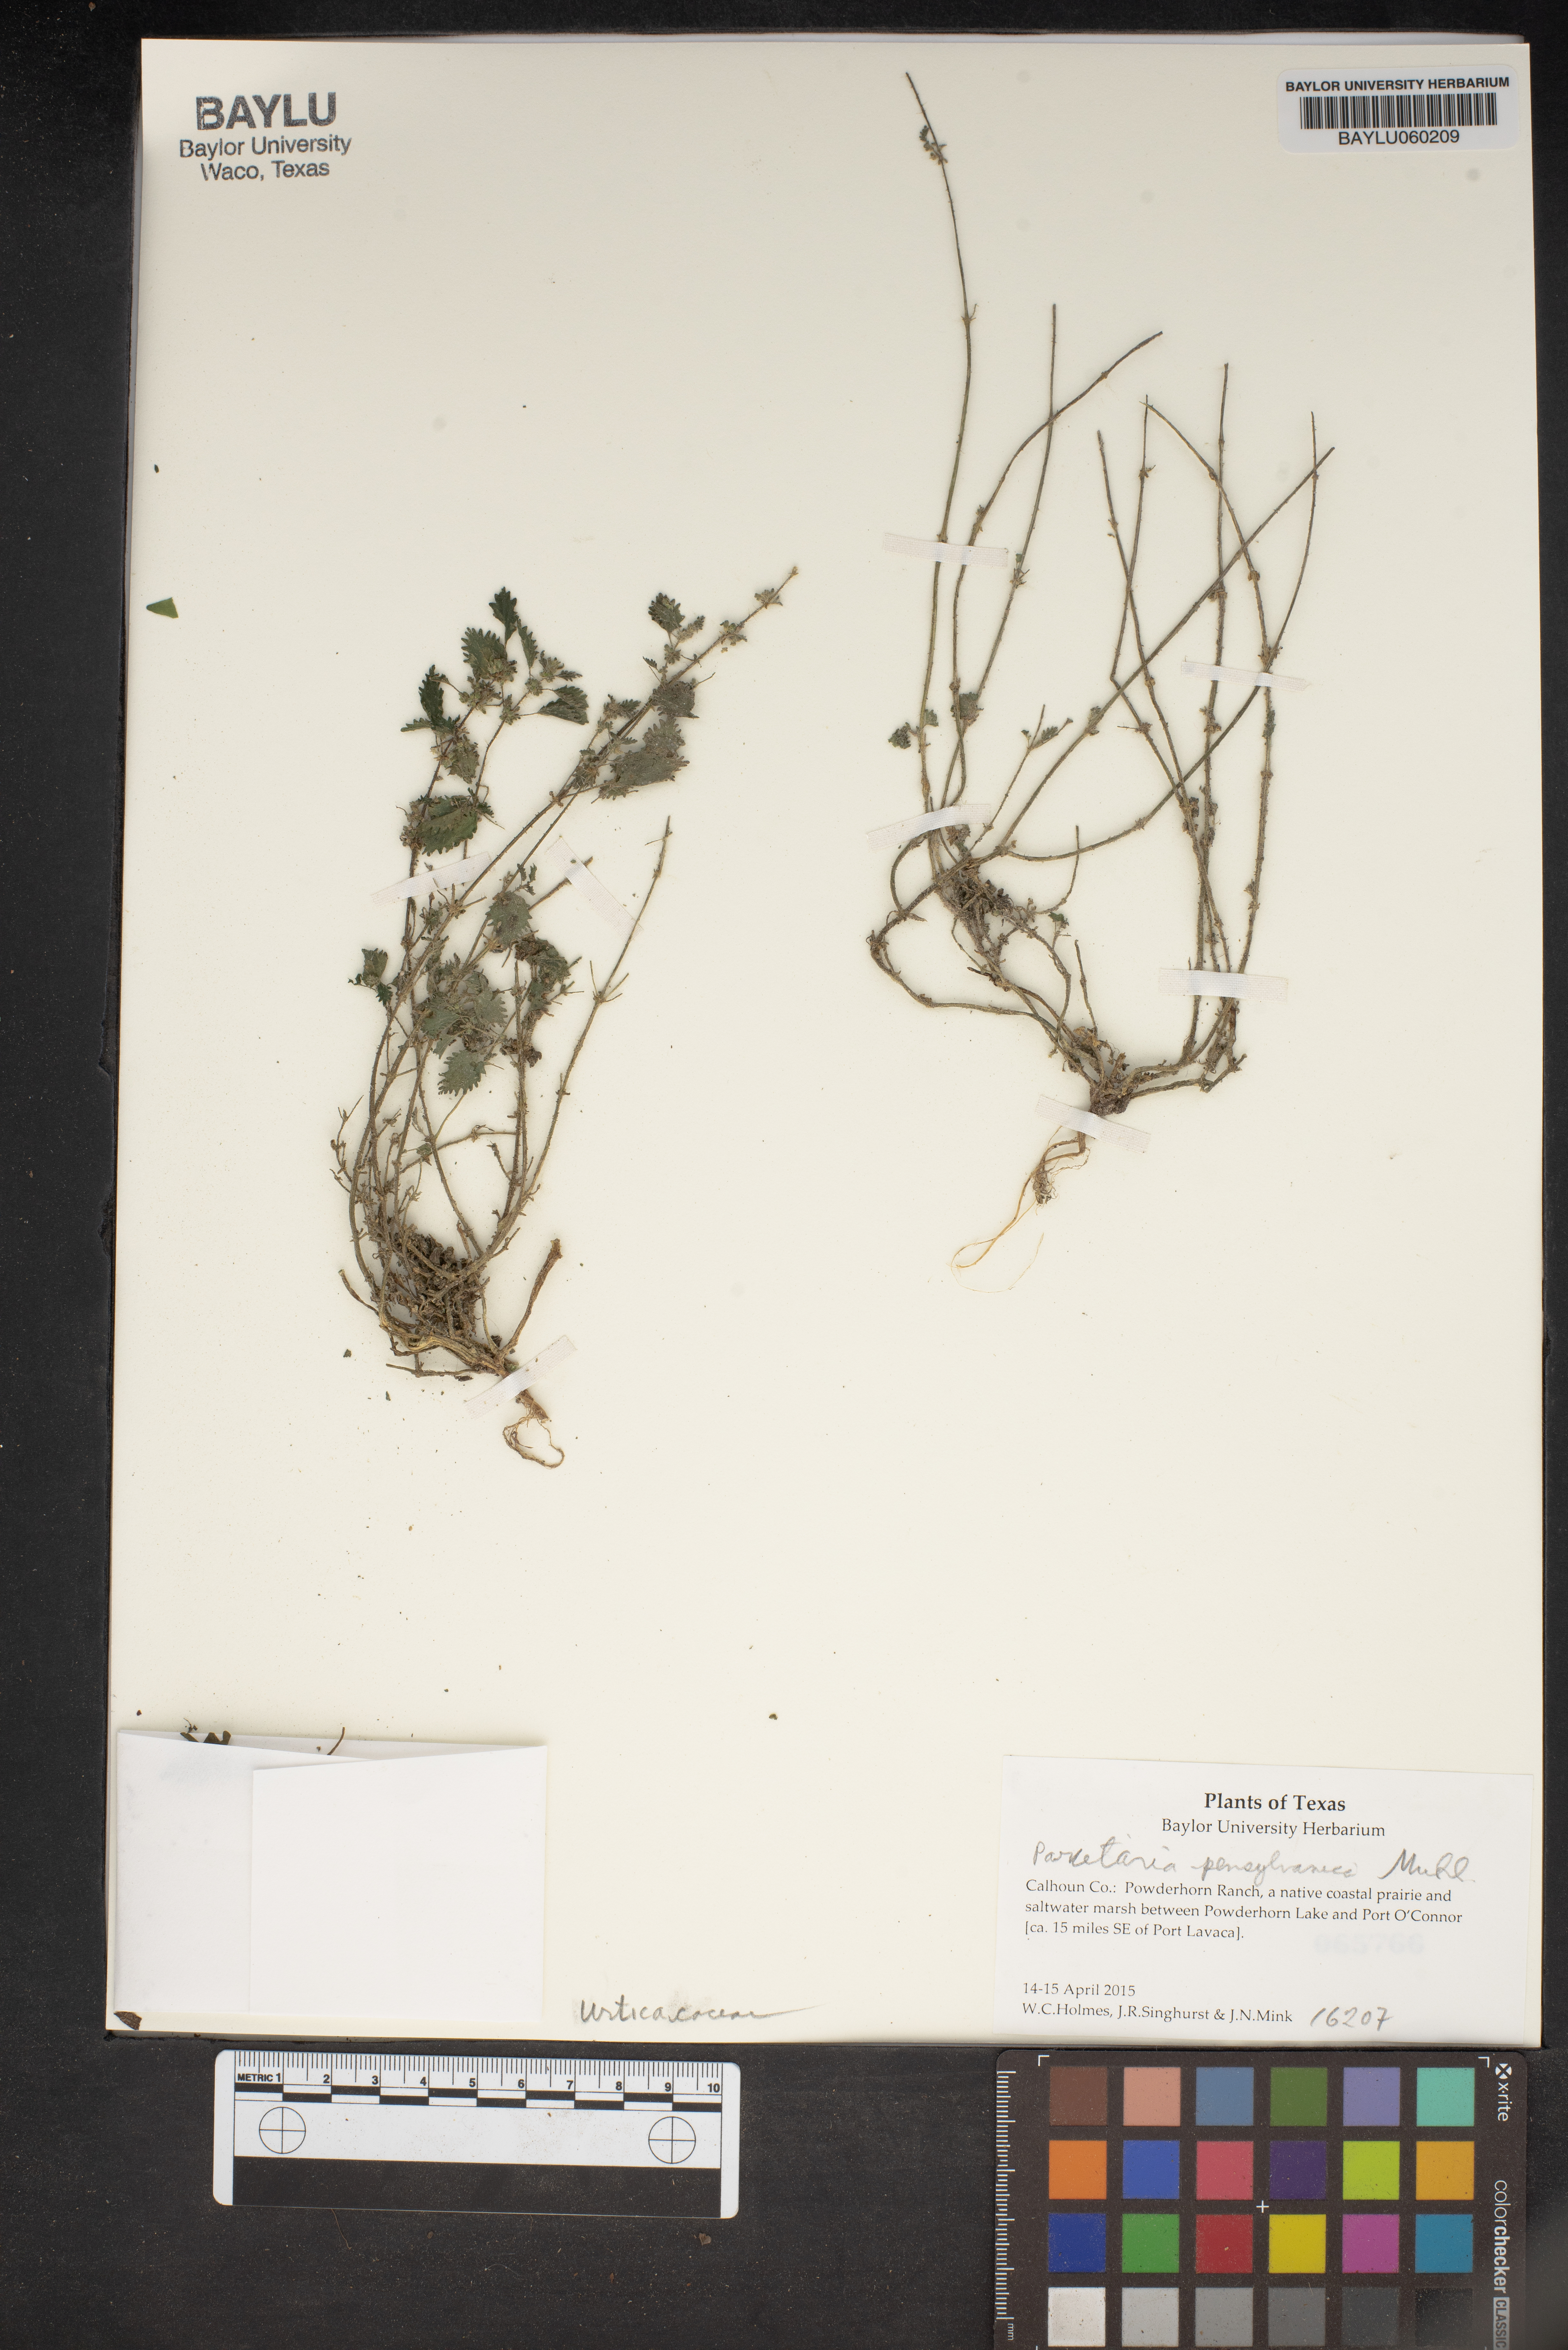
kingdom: Plantae
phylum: Tracheophyta
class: Magnoliopsida
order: Rosales
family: Urticaceae
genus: Parietaria
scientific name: Parietaria pensylvanica
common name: Pennsylvania pellitory
